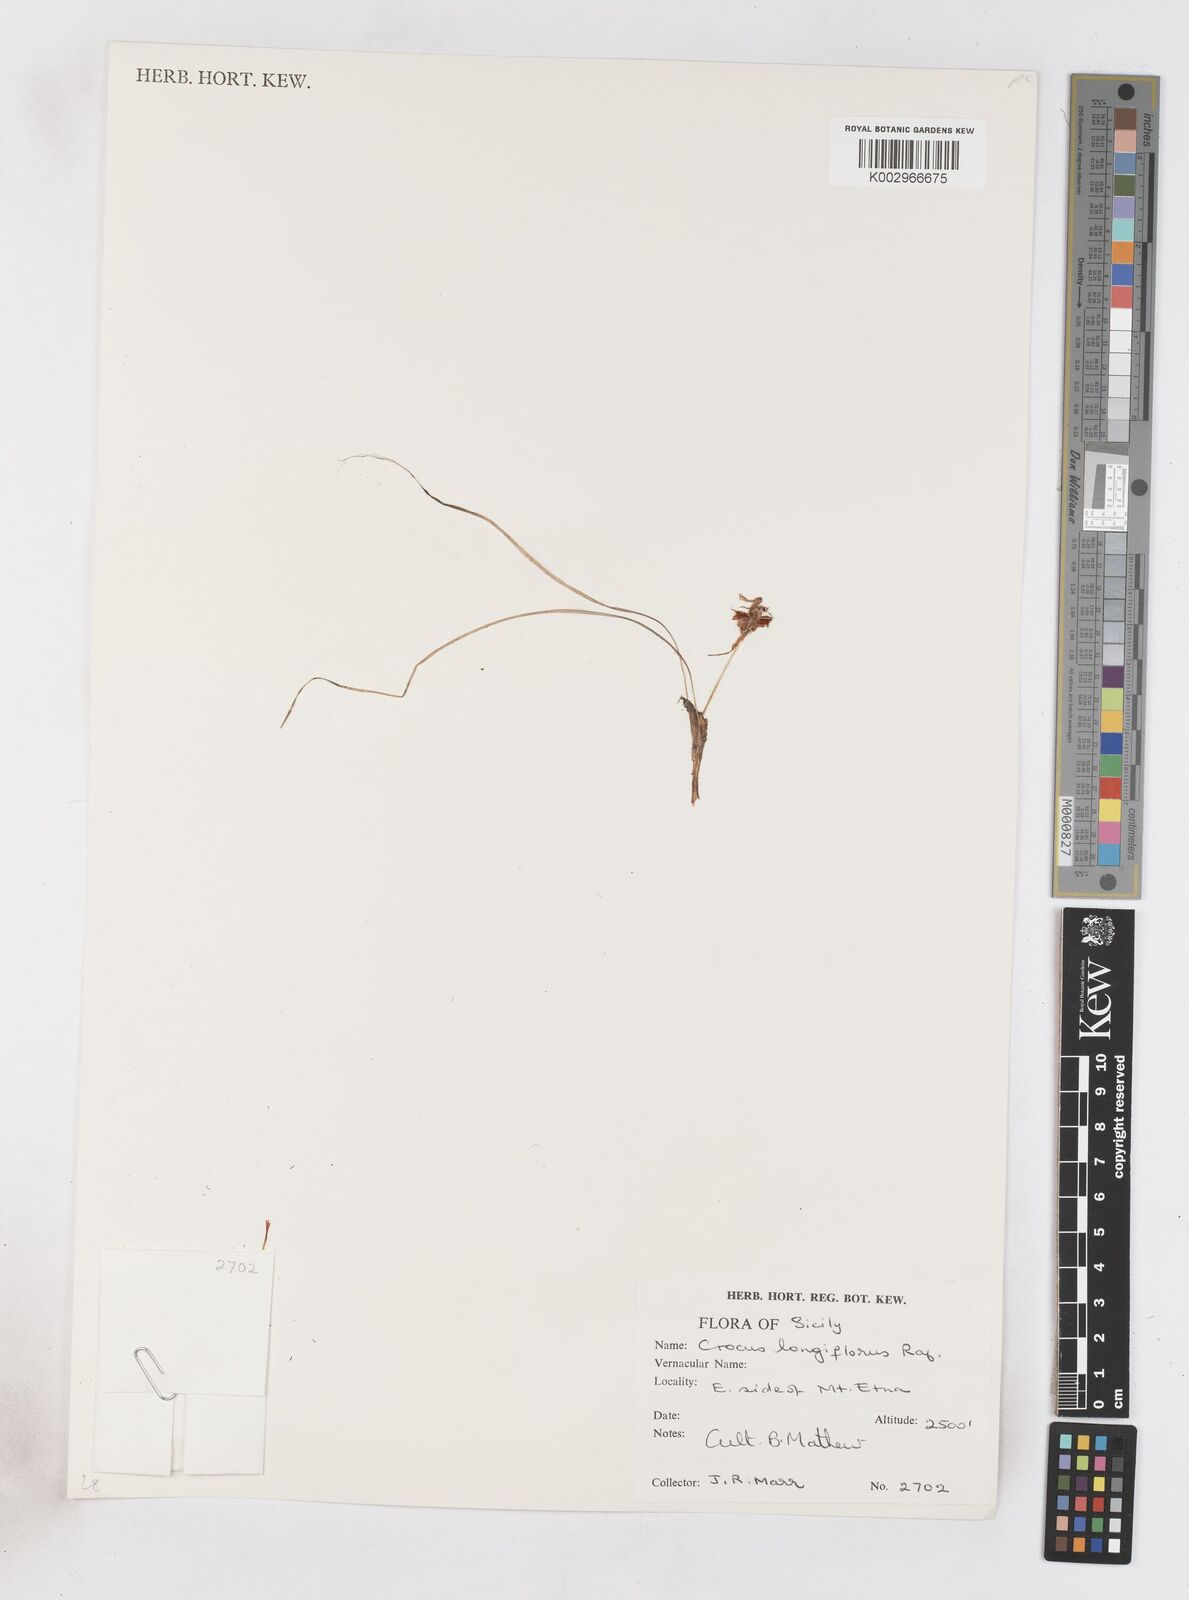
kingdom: Plantae
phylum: Tracheophyta
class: Liliopsida
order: Asparagales
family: Iridaceae
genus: Crocus
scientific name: Crocus longiflorus
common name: Italian crocus
